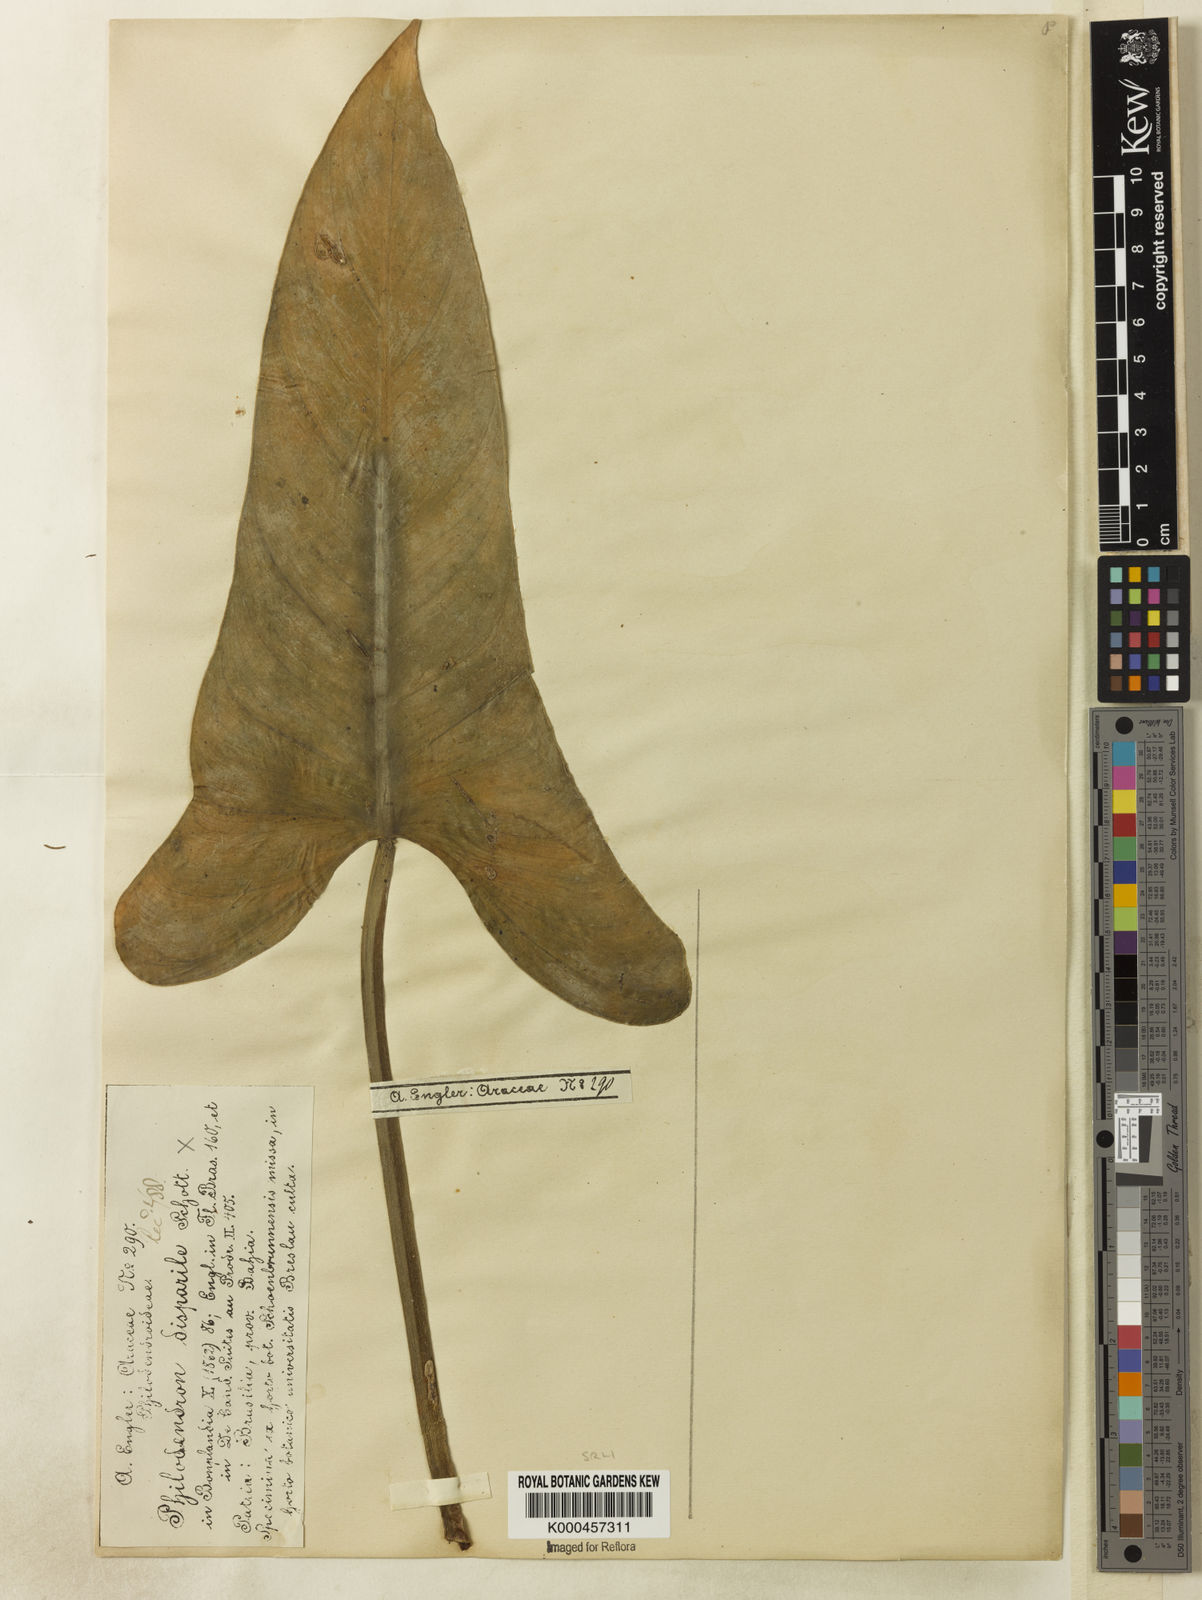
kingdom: Plantae
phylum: Tracheophyta
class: Liliopsida
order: Alismatales
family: Araceae
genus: Philodendron
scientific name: Philodendron hastatum
